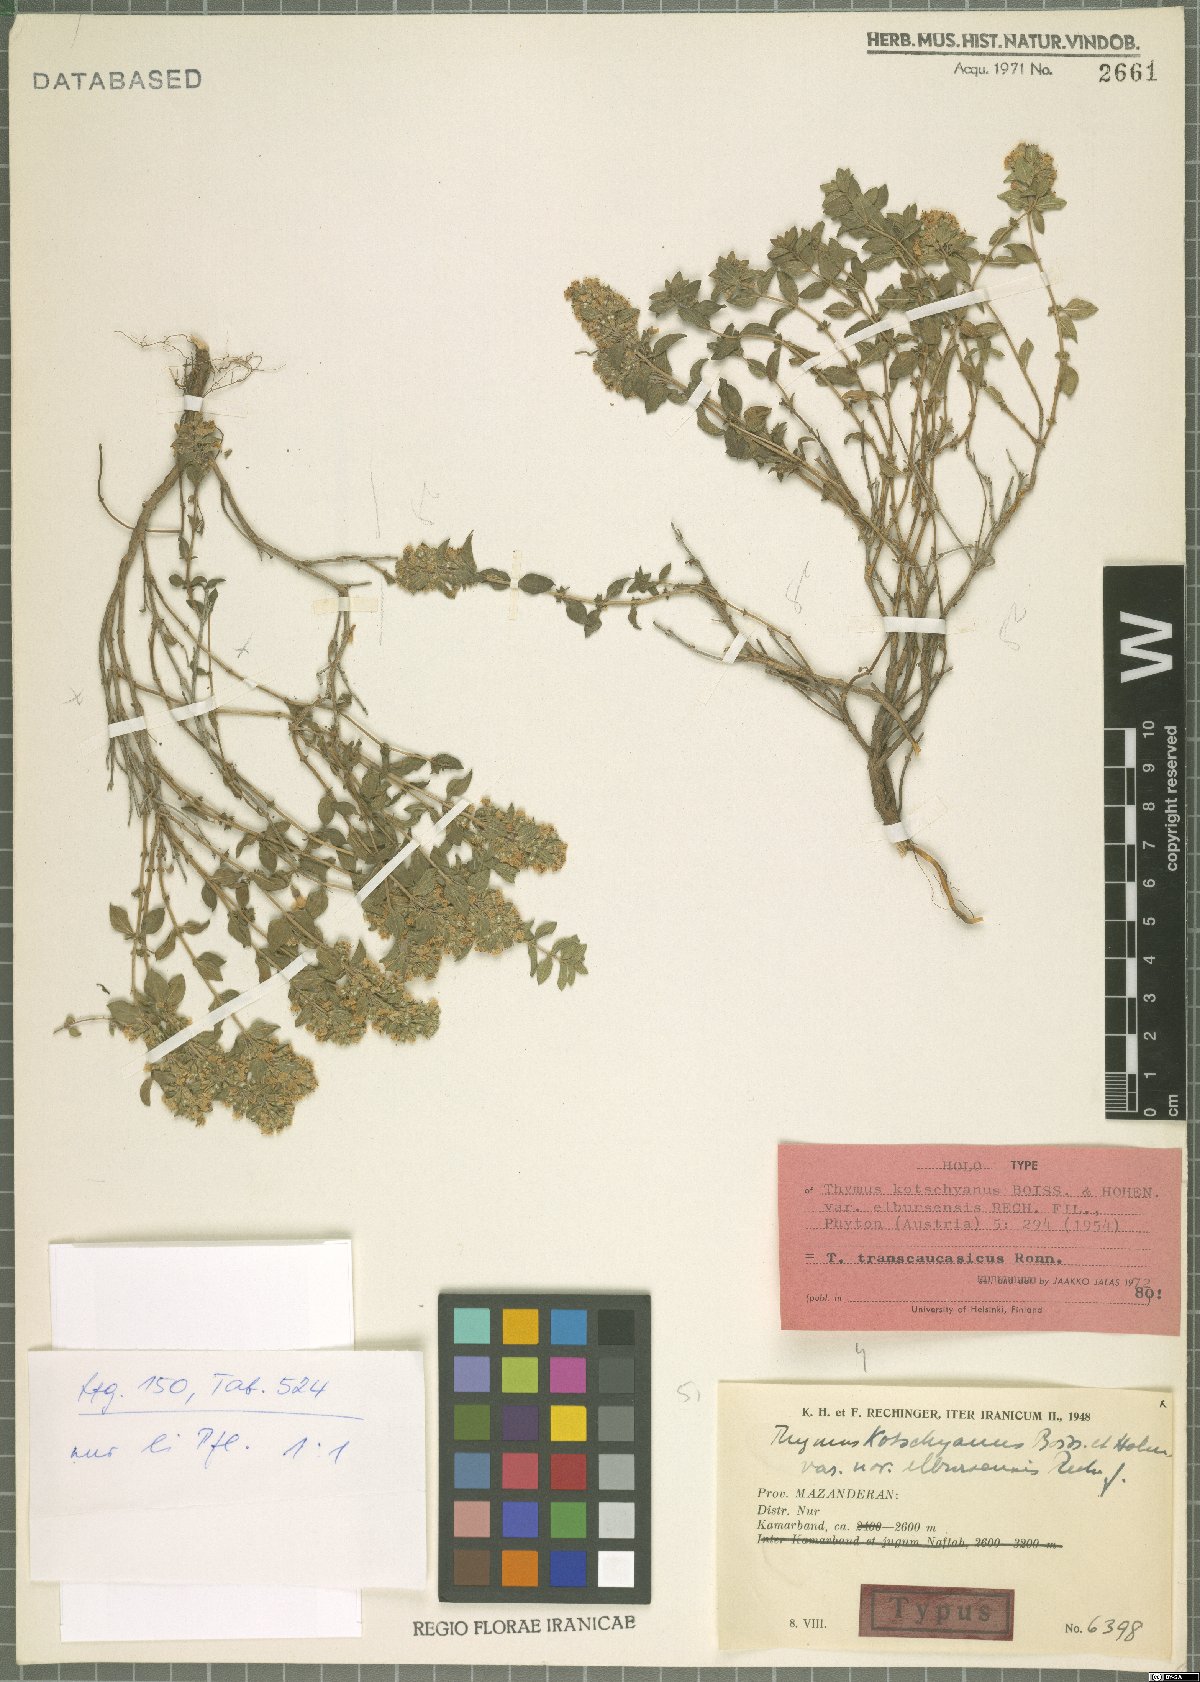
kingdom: Plantae
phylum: Tracheophyta
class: Magnoliopsida
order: Lamiales
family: Lamiaceae
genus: Thymus
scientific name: Thymus transcaucasicus
